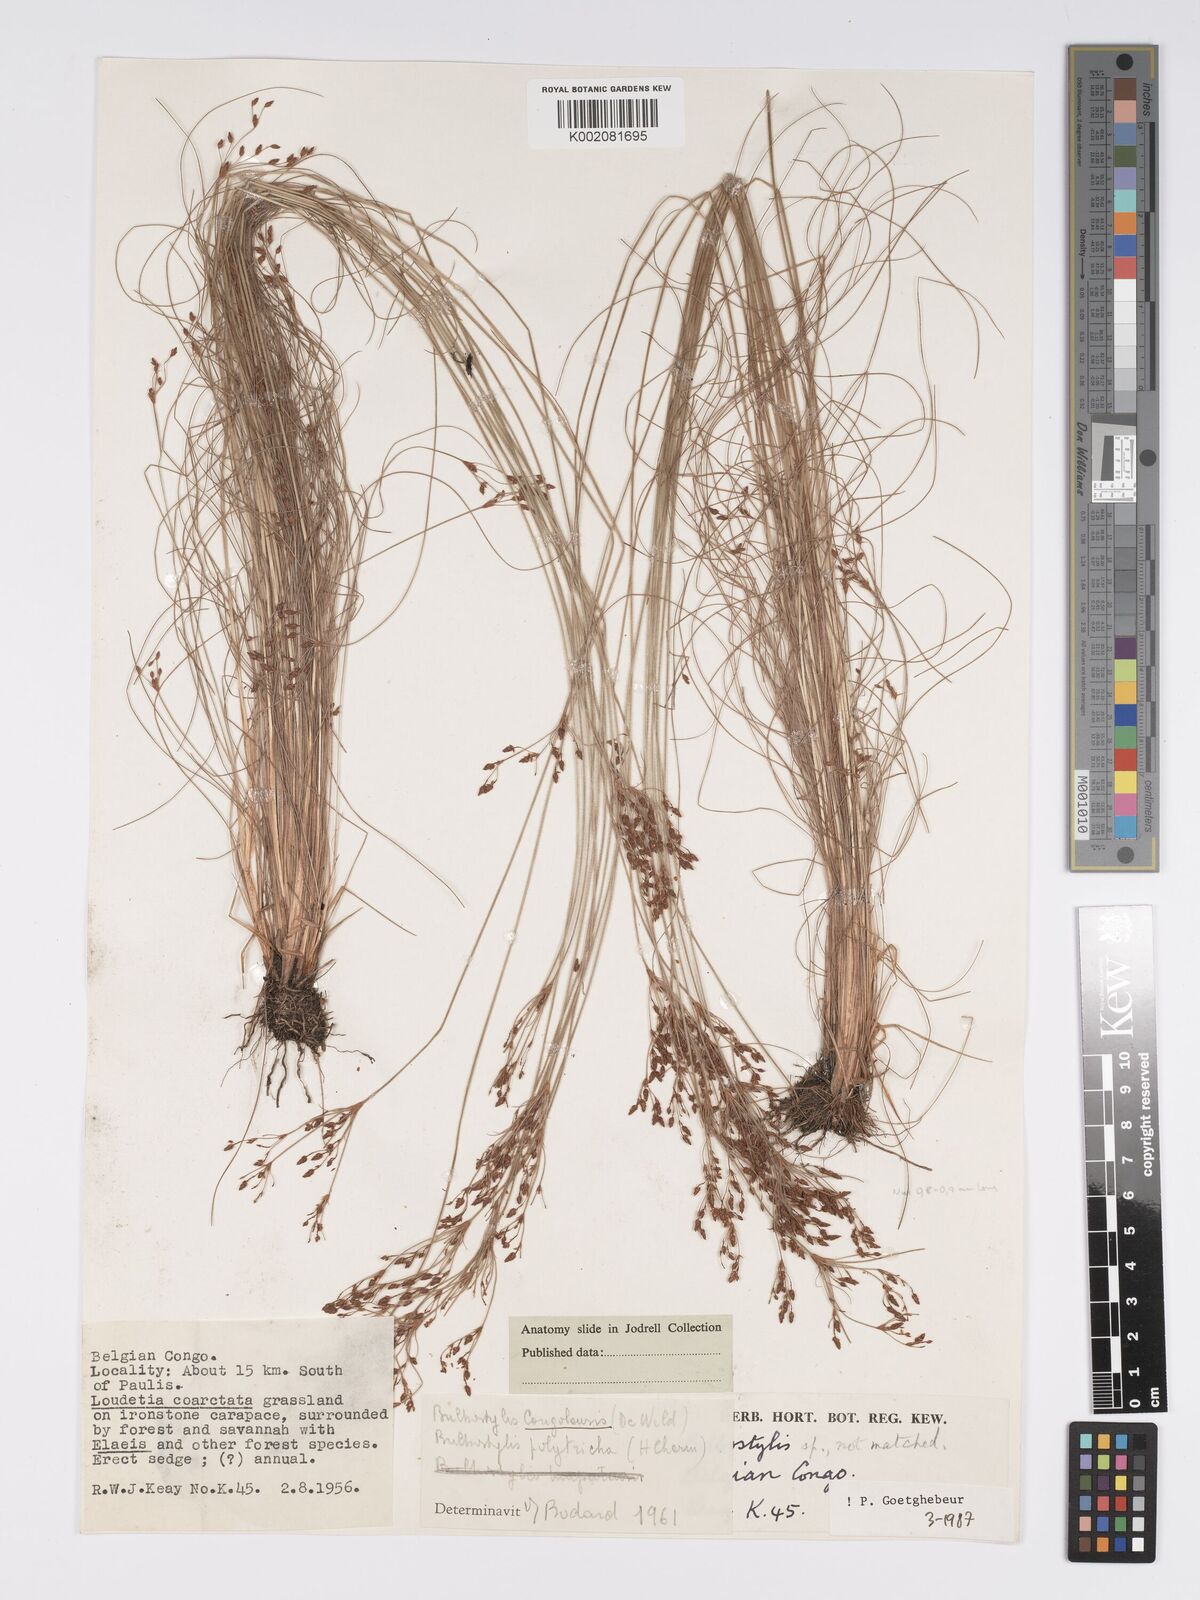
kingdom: Plantae
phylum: Tracheophyta
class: Liliopsida
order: Poales
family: Cyperaceae
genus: Bulbostylis
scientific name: Bulbostylis congolensis
